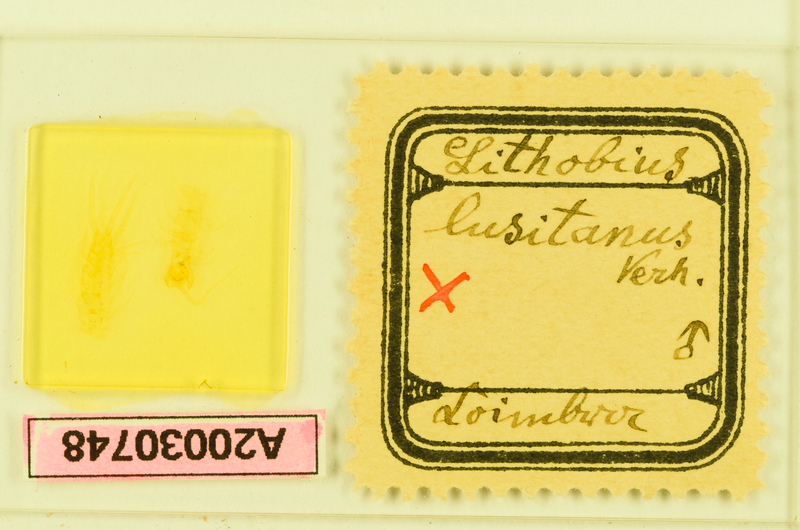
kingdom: Animalia
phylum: Arthropoda
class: Chilopoda
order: Lithobiomorpha
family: Lithobiidae
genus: Lithobius
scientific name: Lithobius lusitanus
